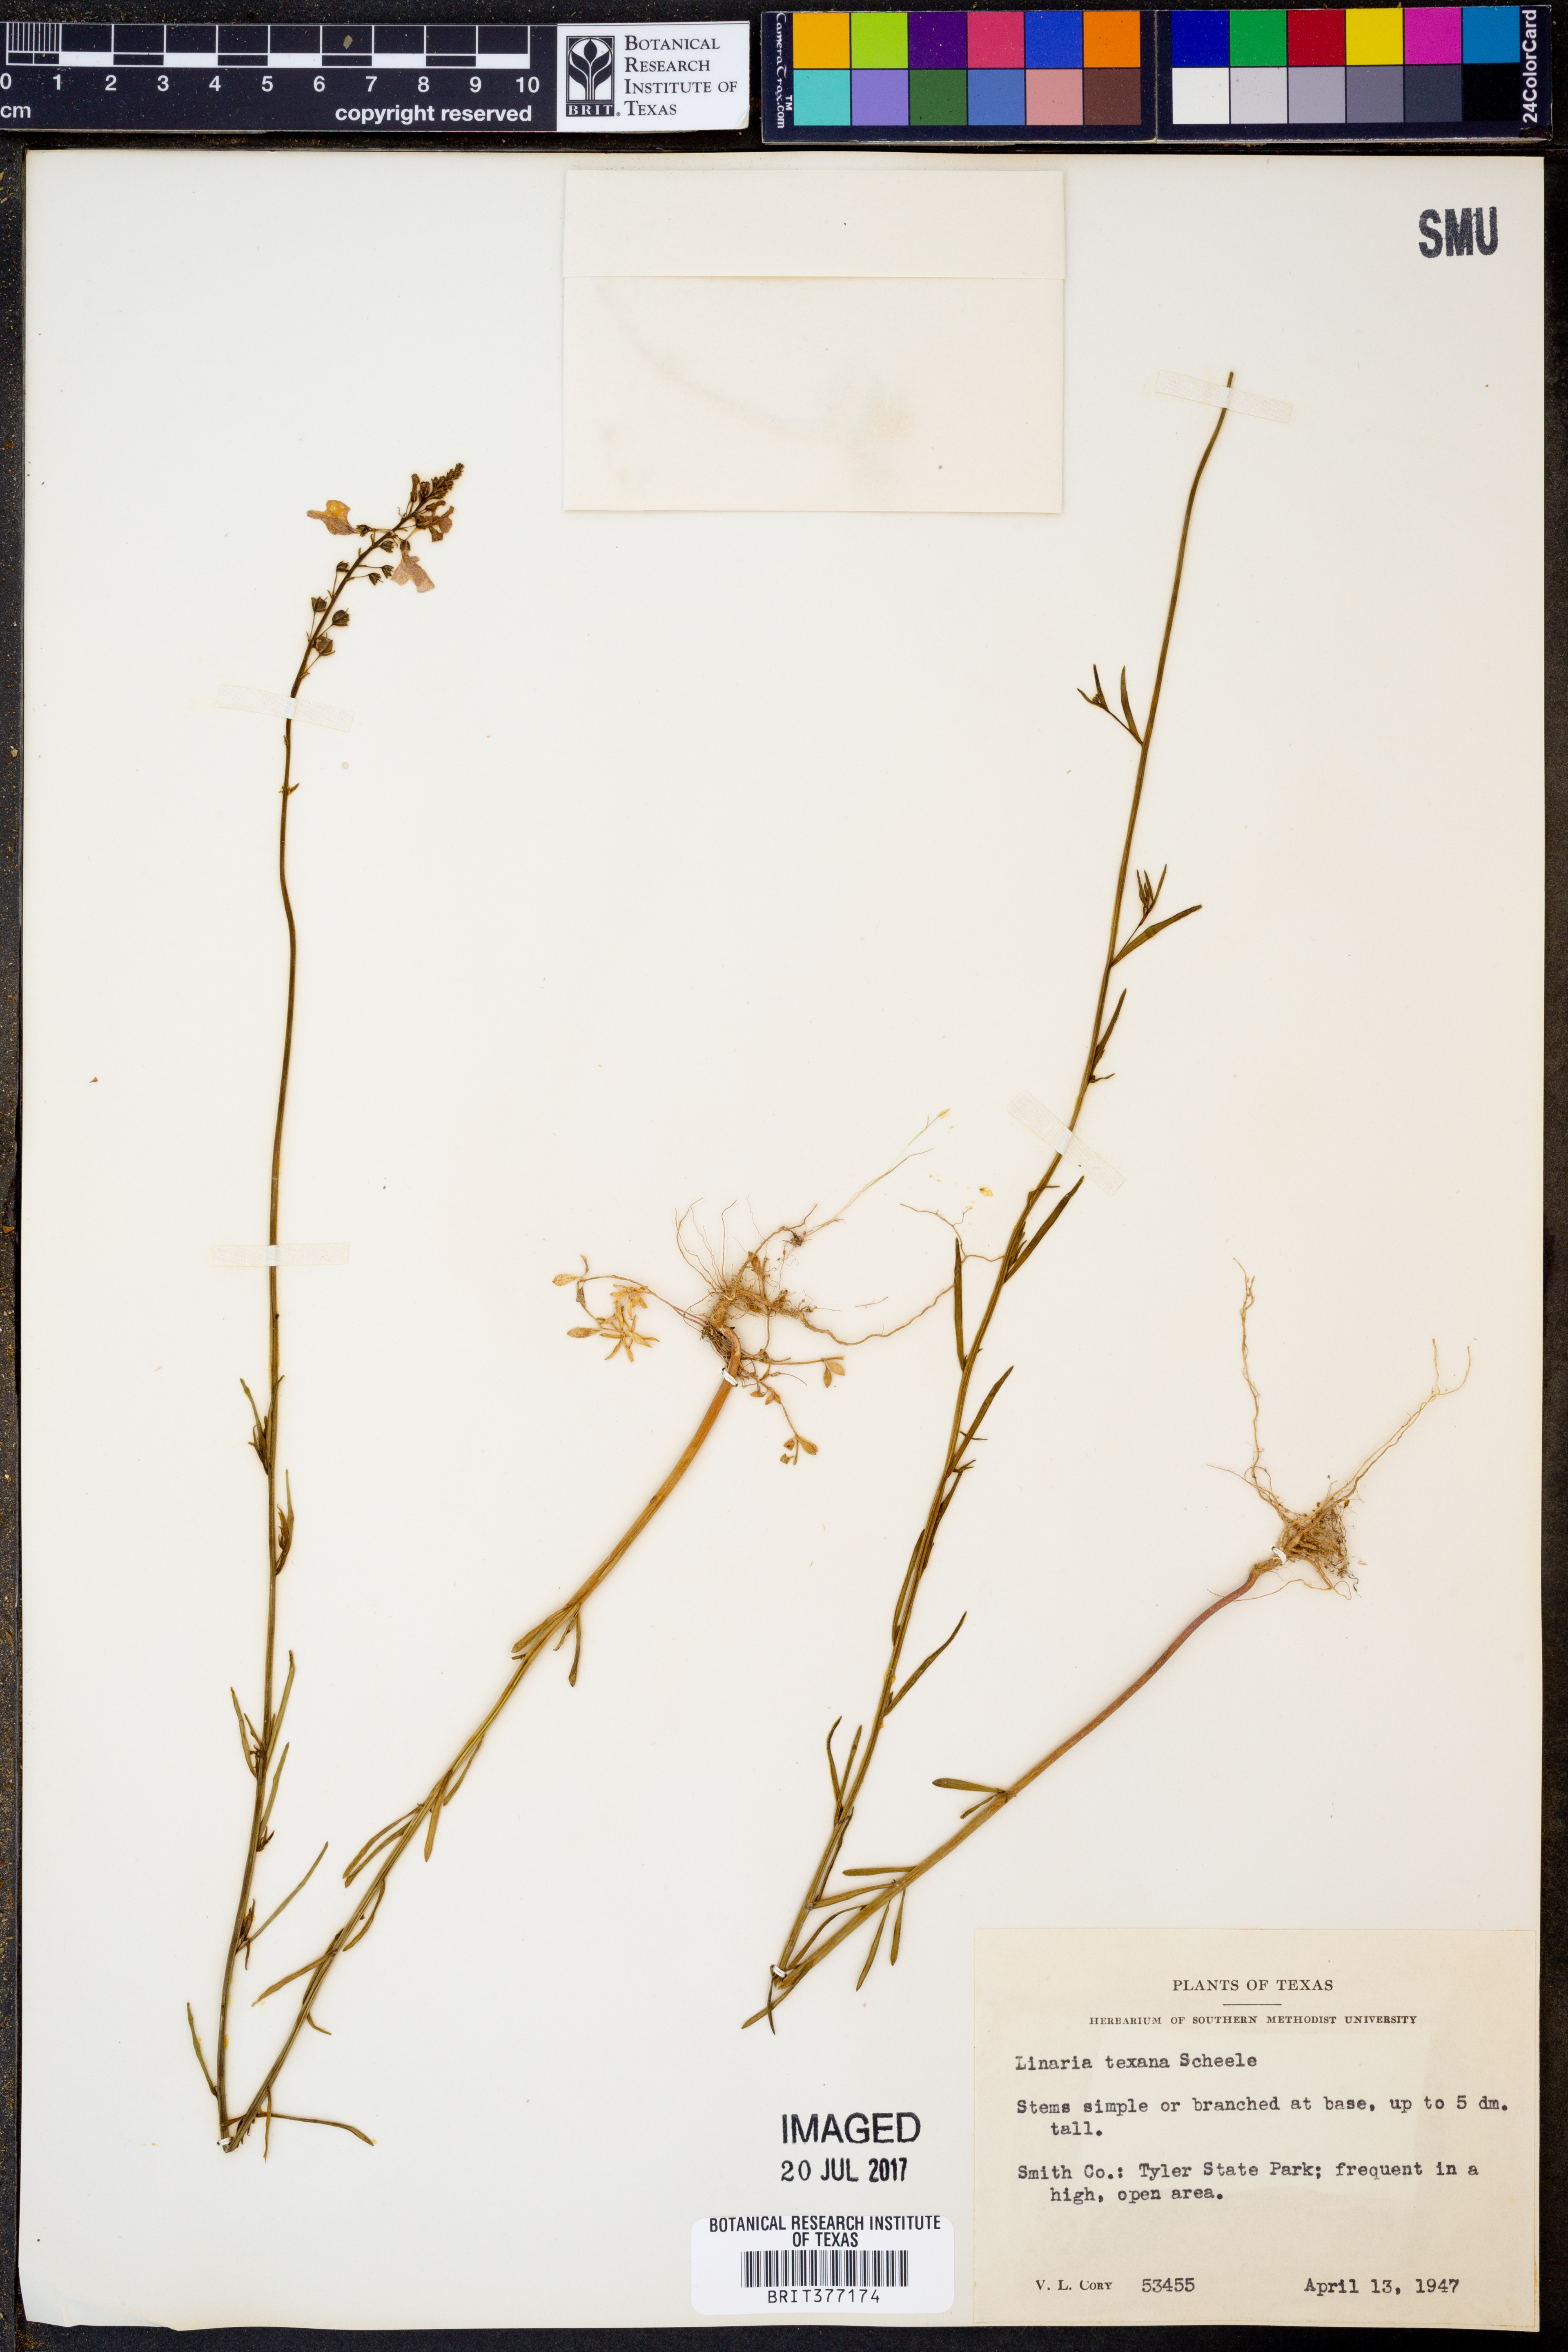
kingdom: Plantae
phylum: Tracheophyta
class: Magnoliopsida
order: Lamiales
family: Plantaginaceae
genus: Nuttallanthus
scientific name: Nuttallanthus texanus
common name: Texas toadflax
